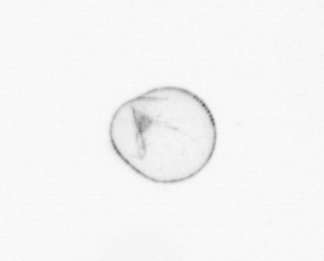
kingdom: Chromista
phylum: Myzozoa
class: Dinophyceae
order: Noctilucales
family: Noctilucaceae
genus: Noctiluca
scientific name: Noctiluca scintillans
